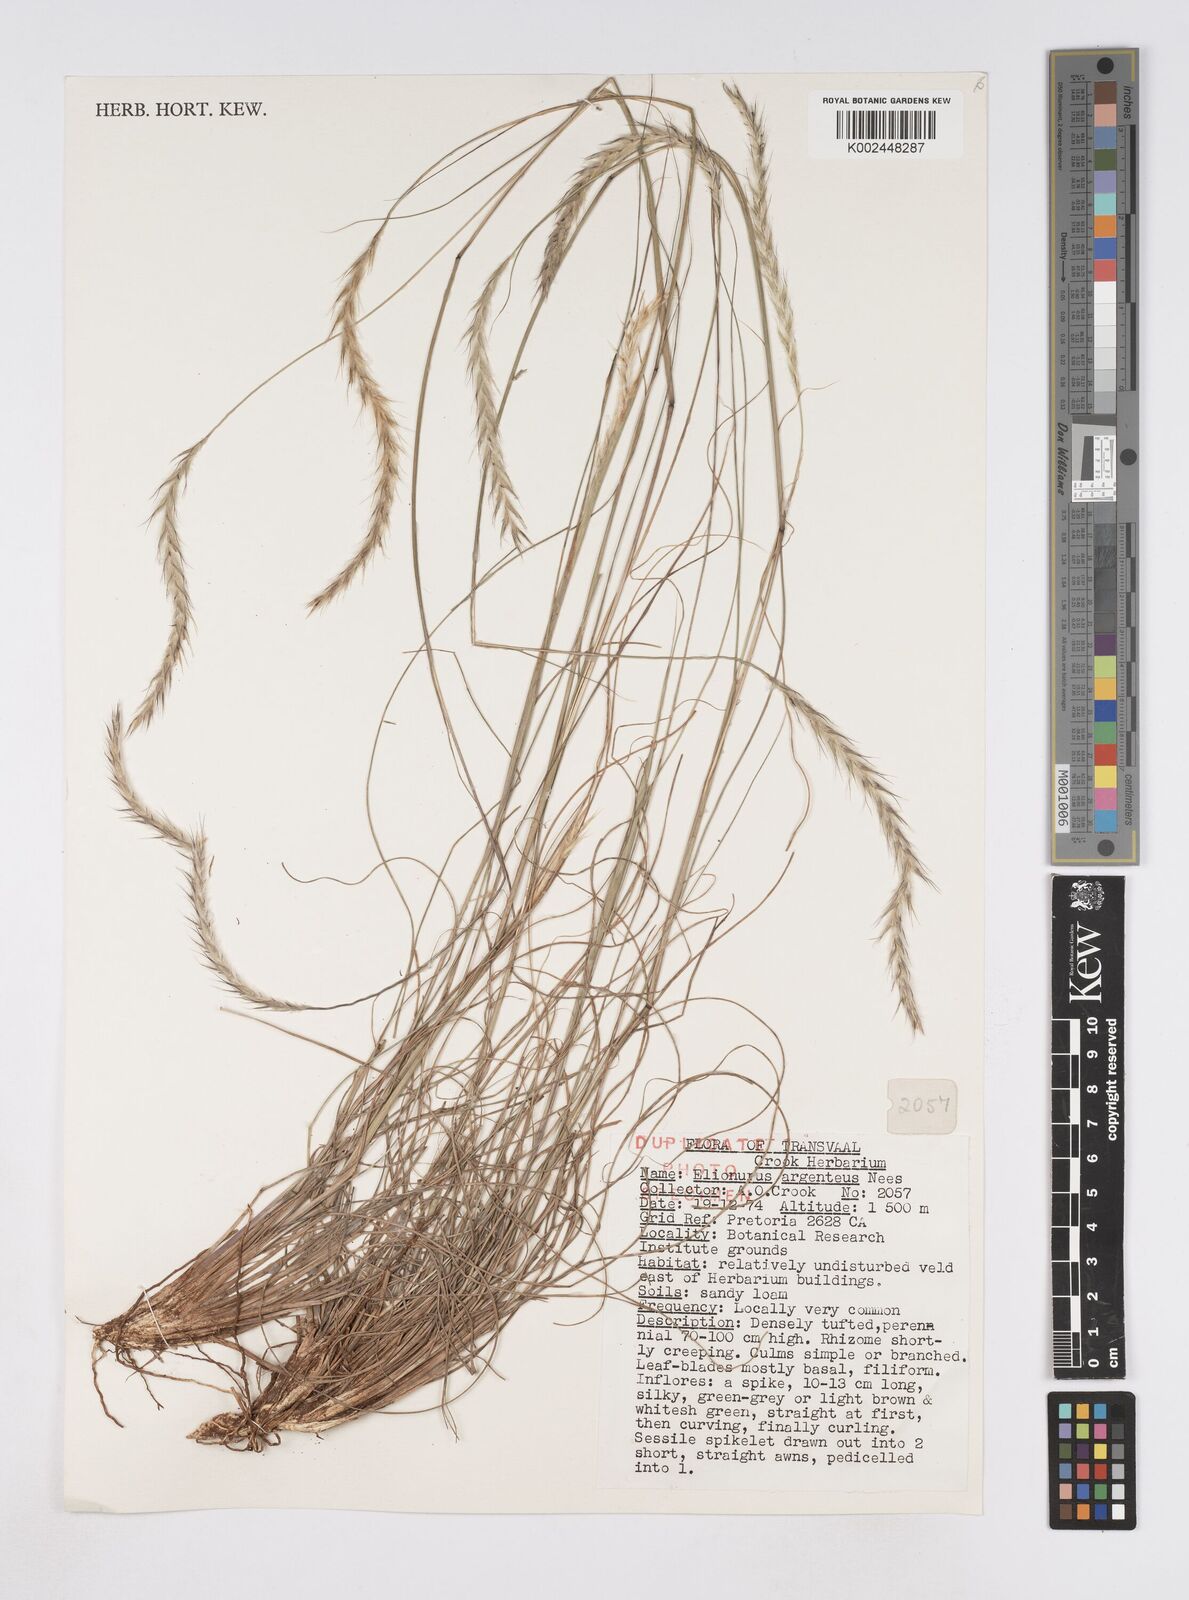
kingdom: Plantae
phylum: Tracheophyta
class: Liliopsida
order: Poales
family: Poaceae
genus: Elionurus
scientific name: Elionurus muticus
